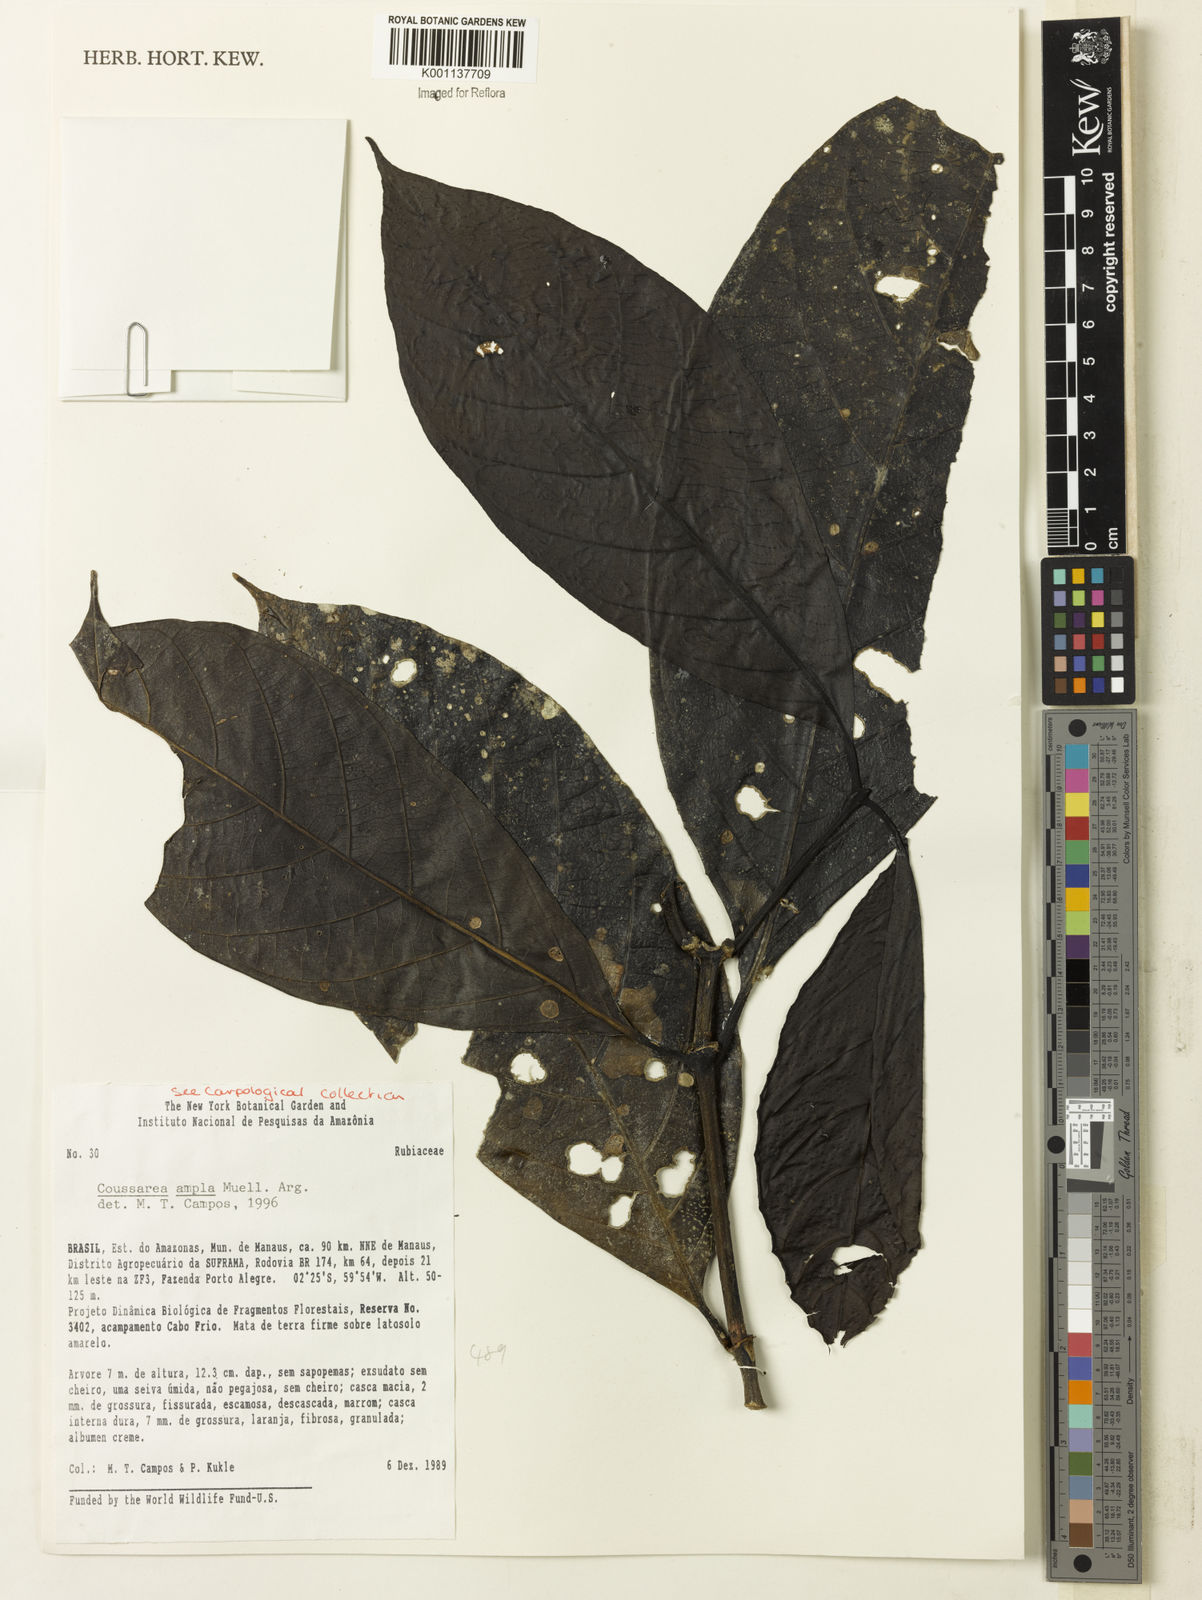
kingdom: Plantae
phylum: Tracheophyta
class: Magnoliopsida
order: Gentianales
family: Rubiaceae
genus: Coussarea
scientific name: Coussarea
